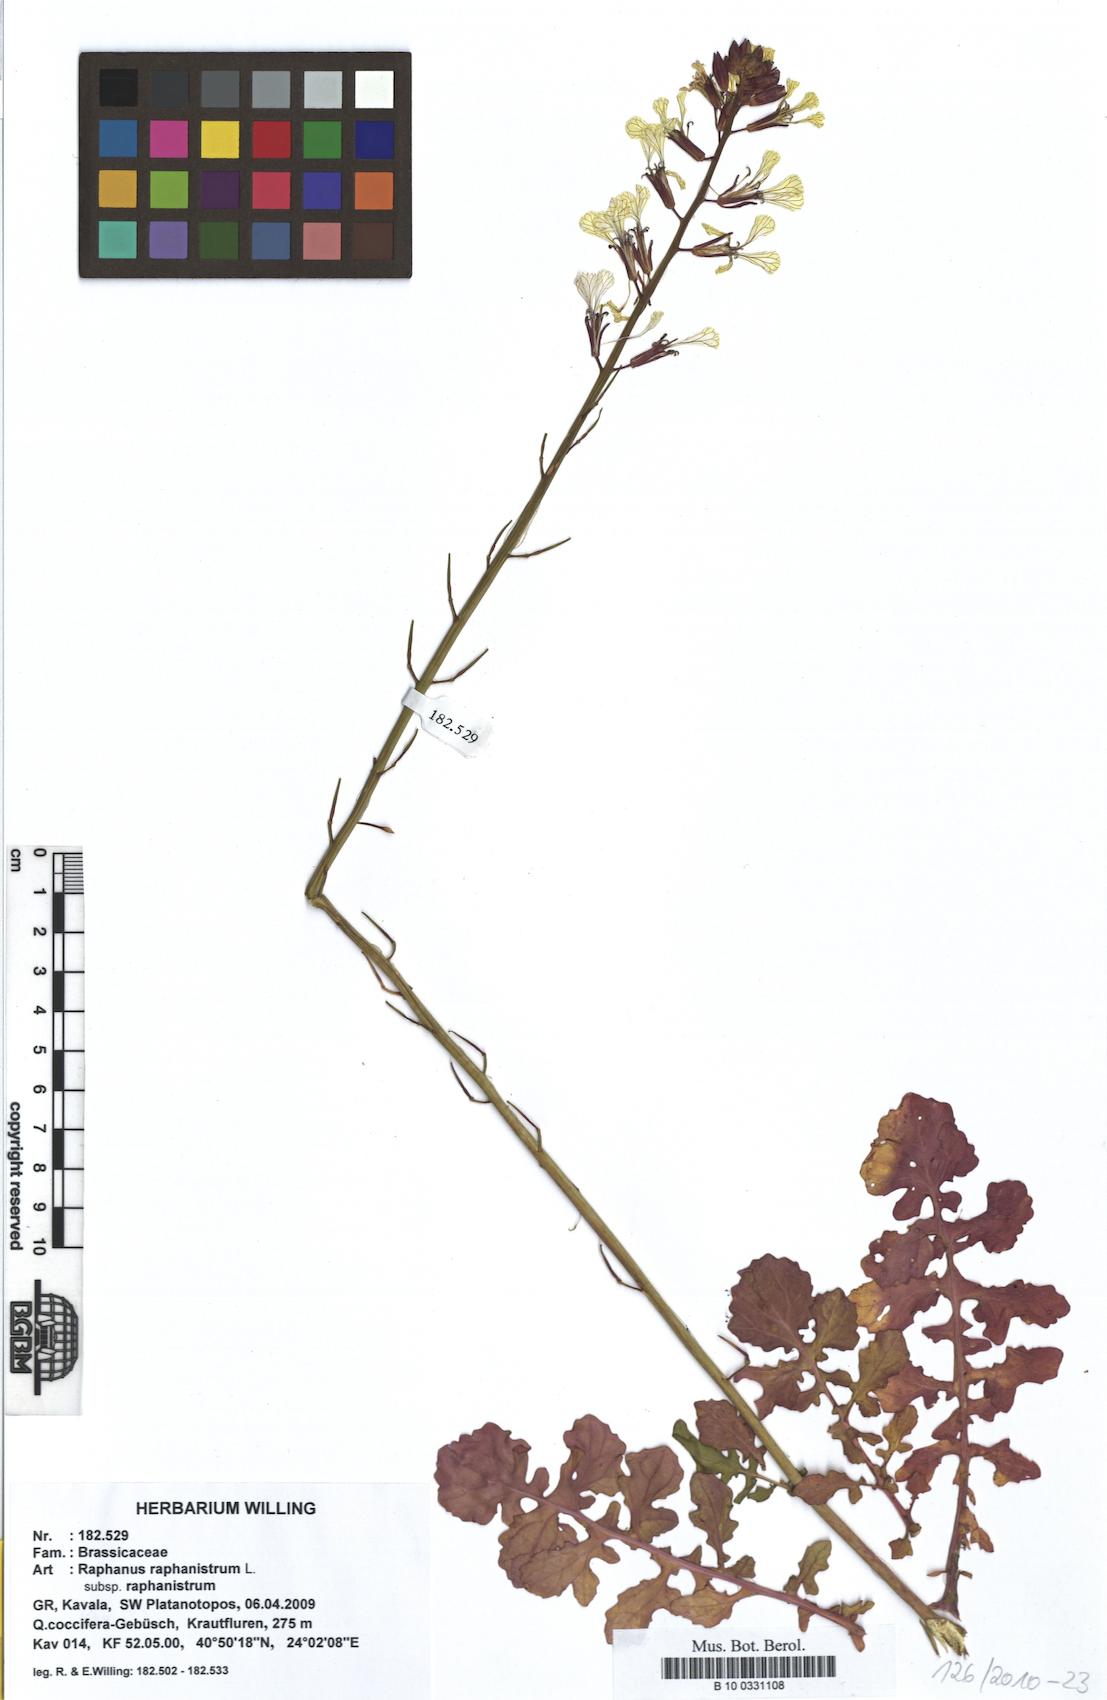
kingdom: Plantae
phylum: Tracheophyta
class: Magnoliopsida
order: Brassicales
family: Brassicaceae
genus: Raphanus
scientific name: Raphanus raphanistrum
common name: Wild radish
